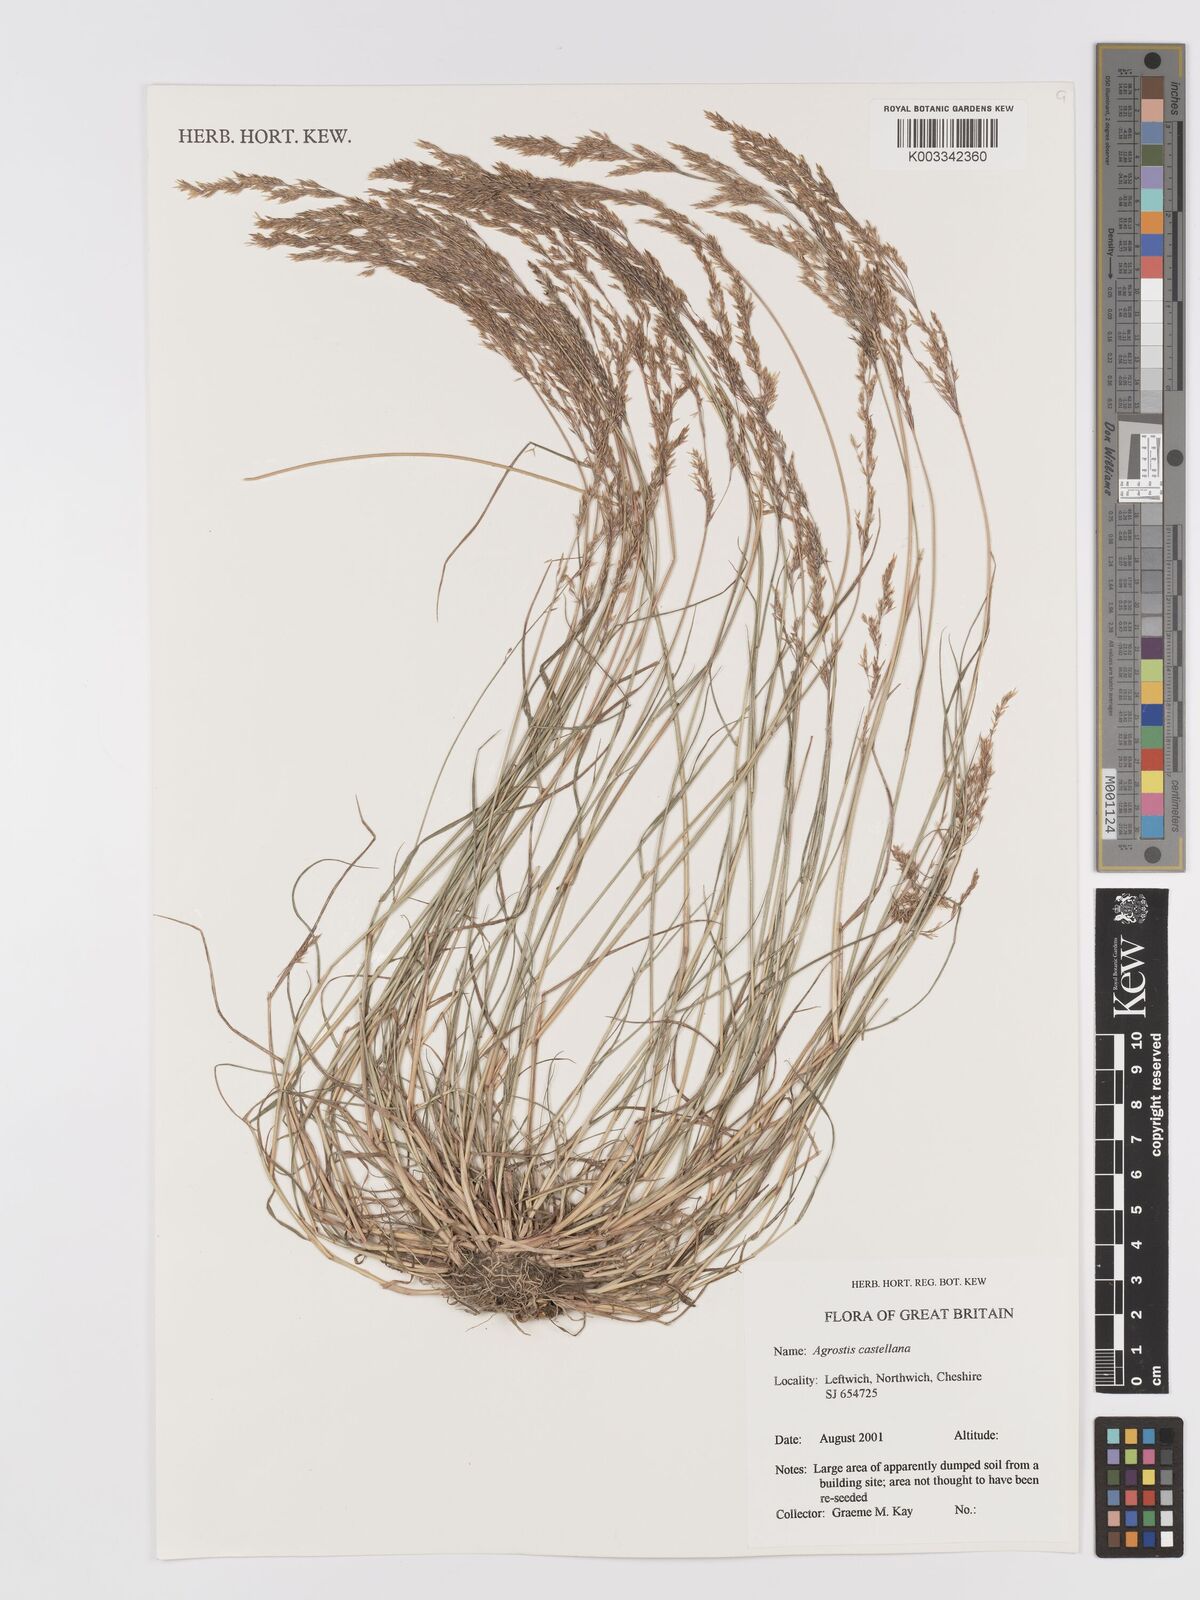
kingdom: Plantae
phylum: Tracheophyta
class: Liliopsida
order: Poales
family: Poaceae
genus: Agrostis
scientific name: Agrostis castriferrei
